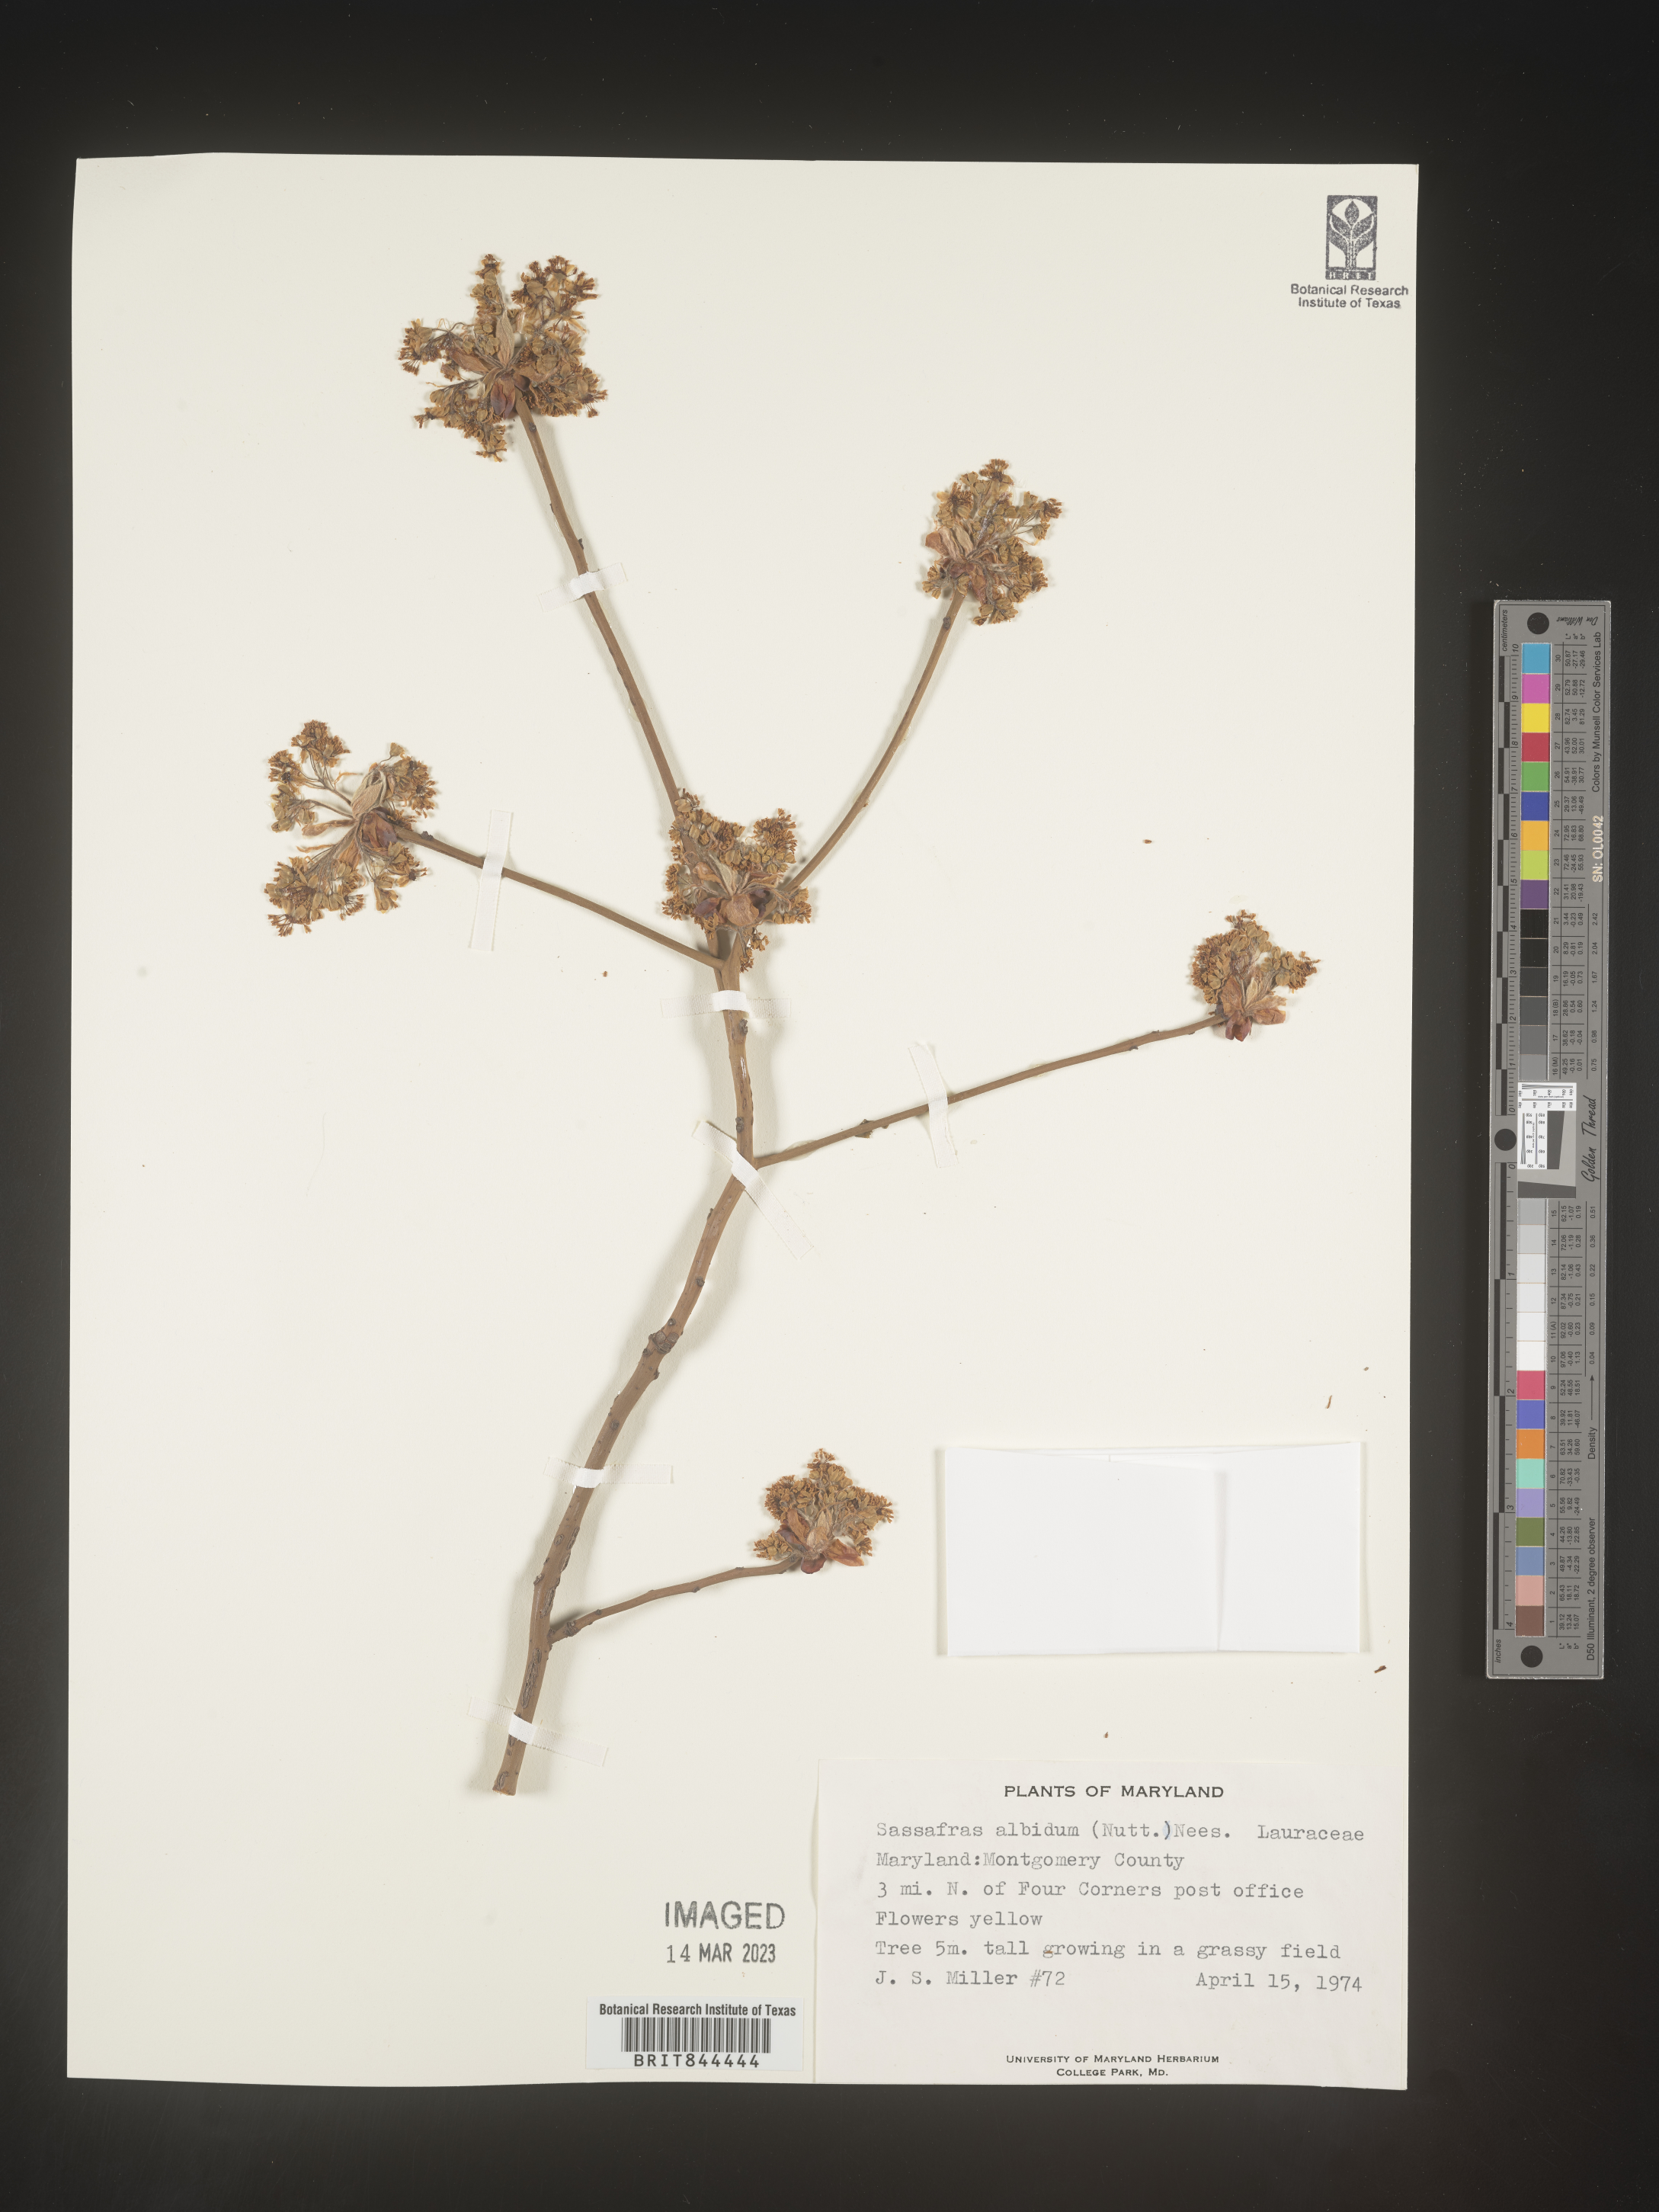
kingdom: Plantae
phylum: Tracheophyta
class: Magnoliopsida
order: Laurales
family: Lauraceae
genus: Sassafras
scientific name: Sassafras albidum
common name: Sassafras
